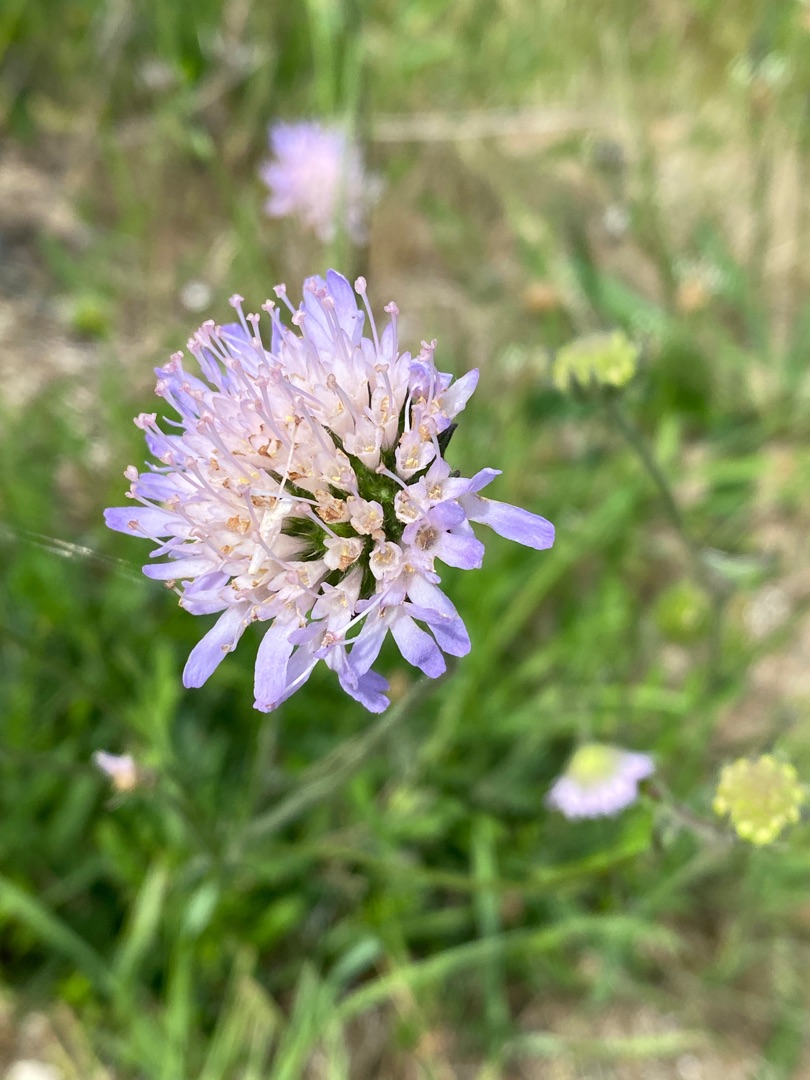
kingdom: Plantae
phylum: Tracheophyta
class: Magnoliopsida
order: Dipsacales
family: Caprifoliaceae
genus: Knautia
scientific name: Knautia arvensis
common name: Blåhat
